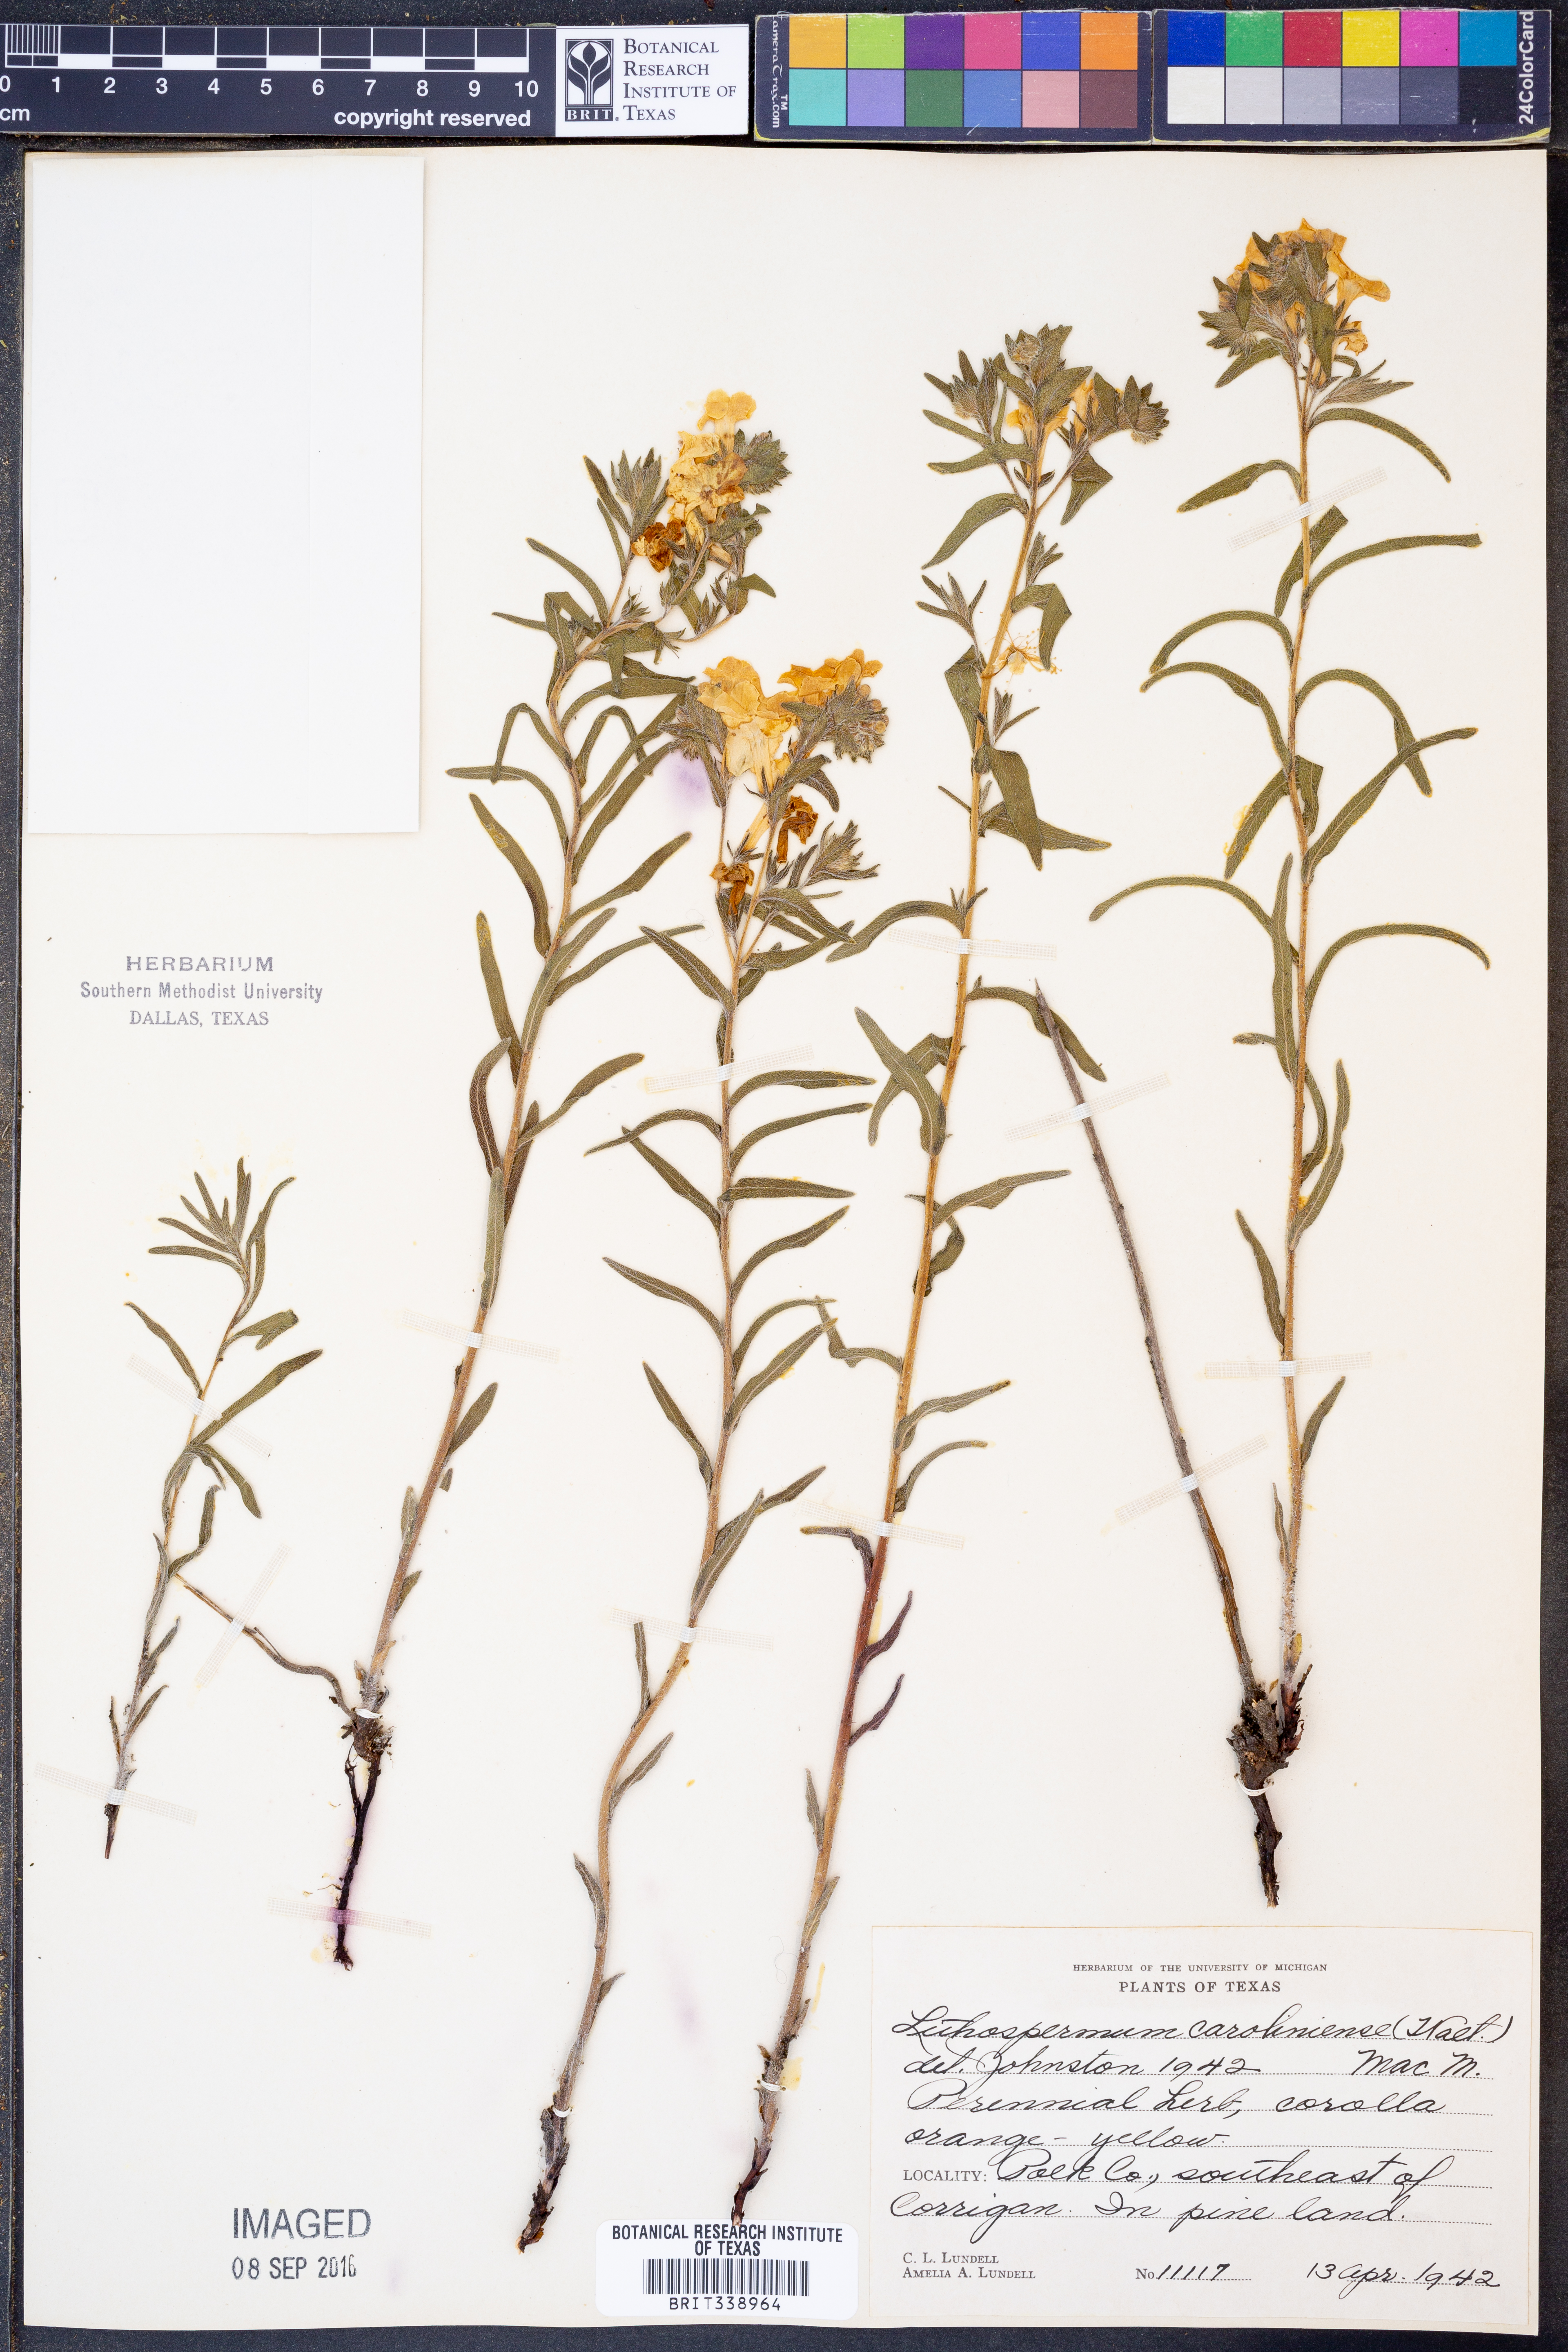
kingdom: Plantae
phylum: Tracheophyta
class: Magnoliopsida
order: Boraginales
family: Boraginaceae
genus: Lithospermum
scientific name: Lithospermum caroliniense
